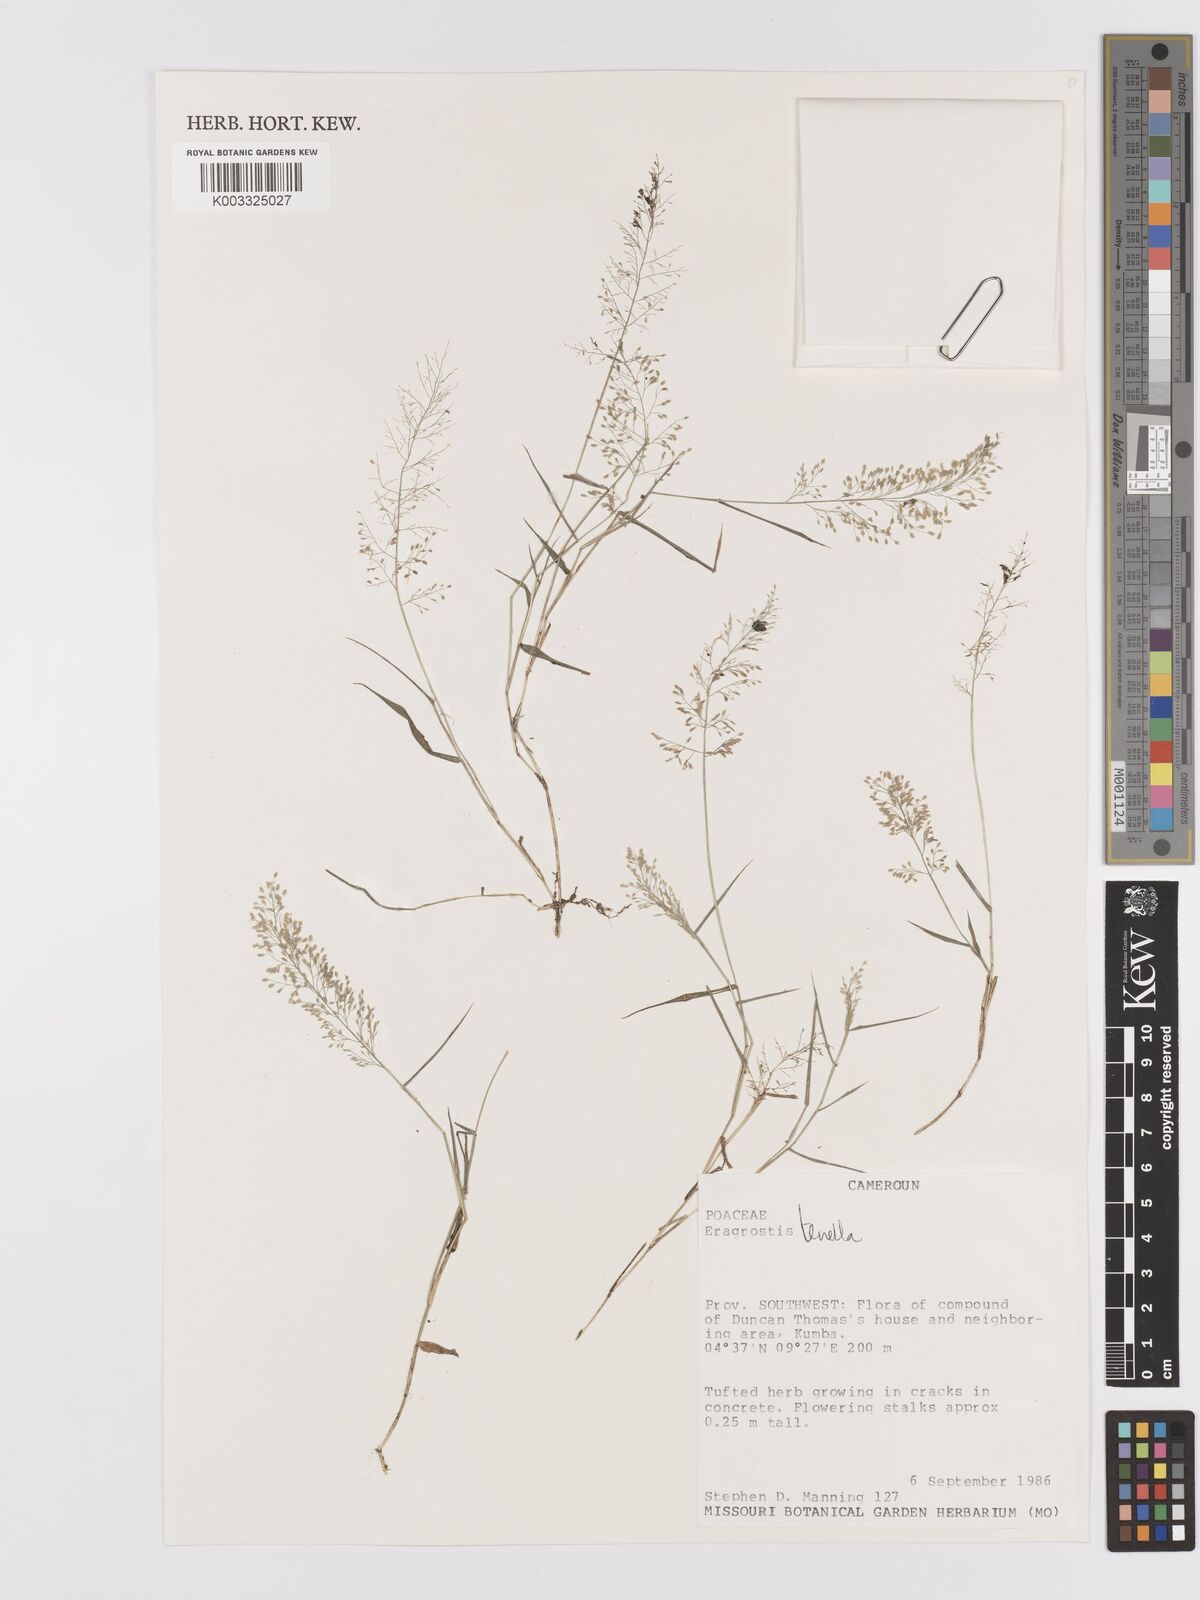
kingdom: Plantae
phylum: Tracheophyta
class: Liliopsida
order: Poales
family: Poaceae
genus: Eragrostis
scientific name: Eragrostis tenella
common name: Japanese lovegrass
